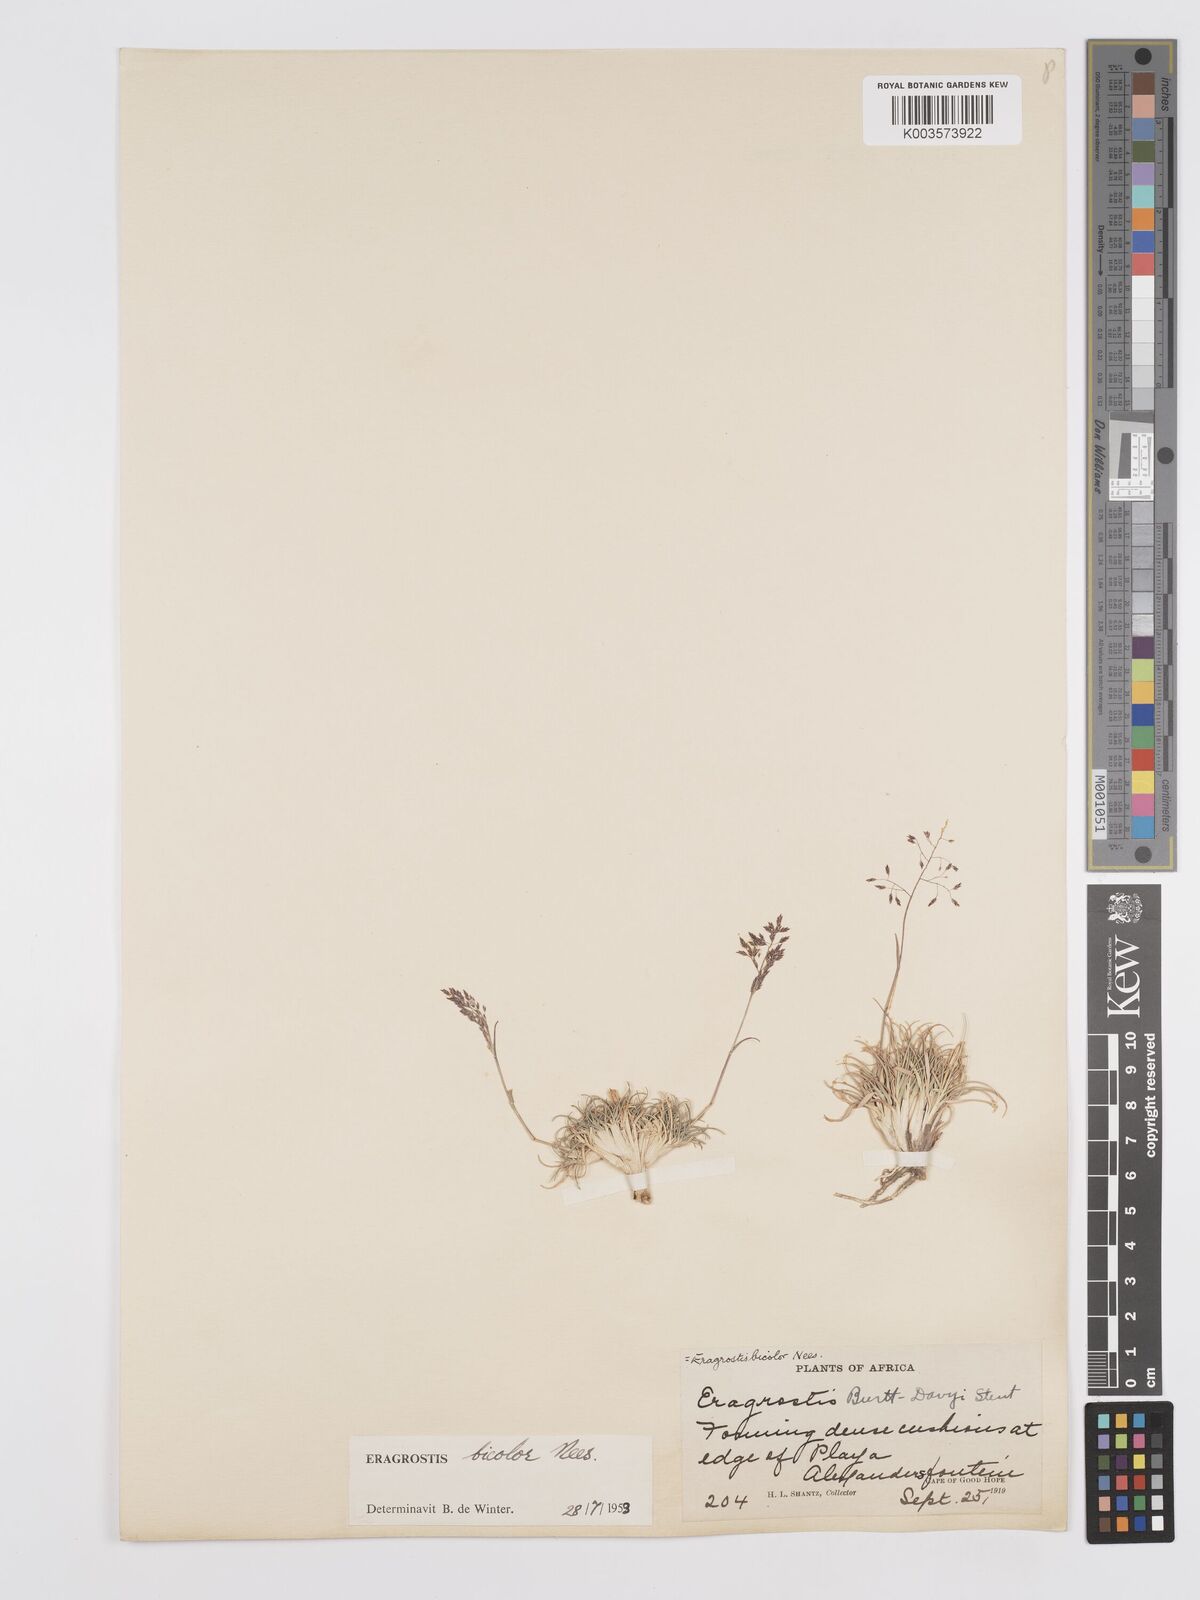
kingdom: Plantae
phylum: Tracheophyta
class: Liliopsida
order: Poales
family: Poaceae
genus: Eragrostis
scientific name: Eragrostis
